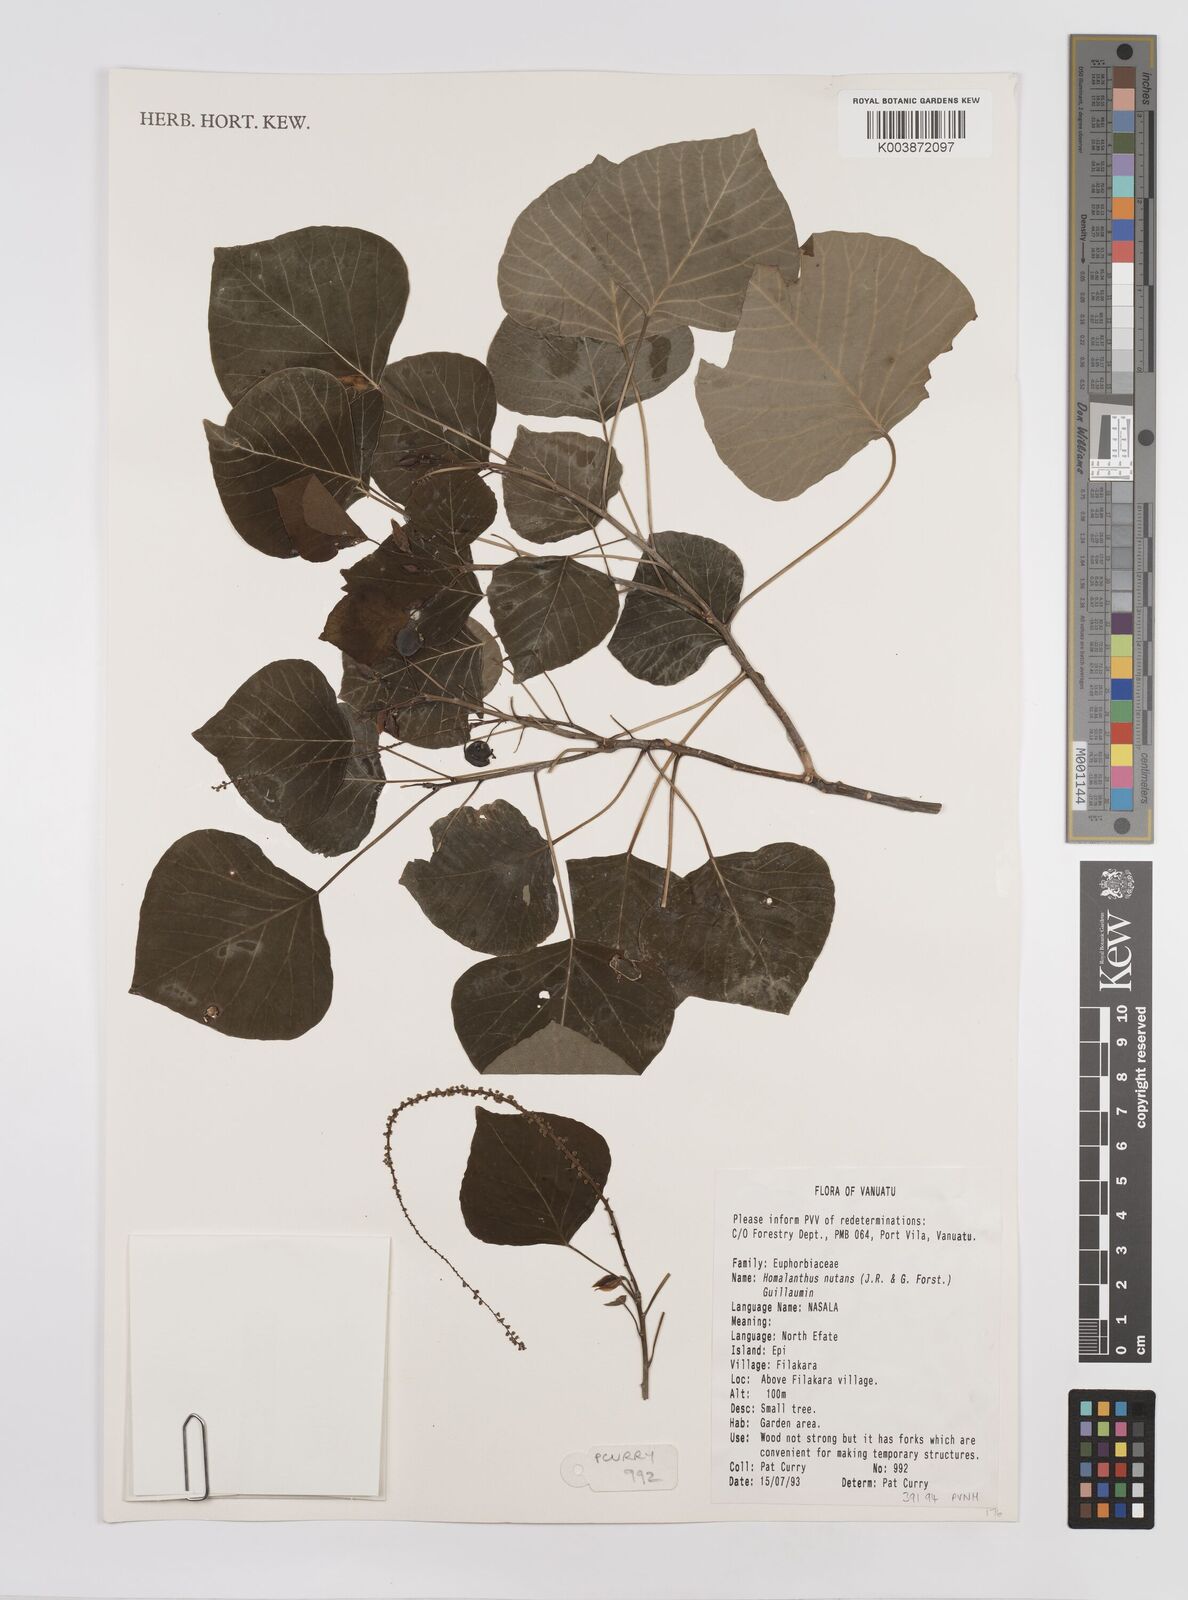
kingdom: Plantae
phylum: Tracheophyta
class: Magnoliopsida
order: Malpighiales
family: Euphorbiaceae
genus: Homalanthus
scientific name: Homalanthus nutans
